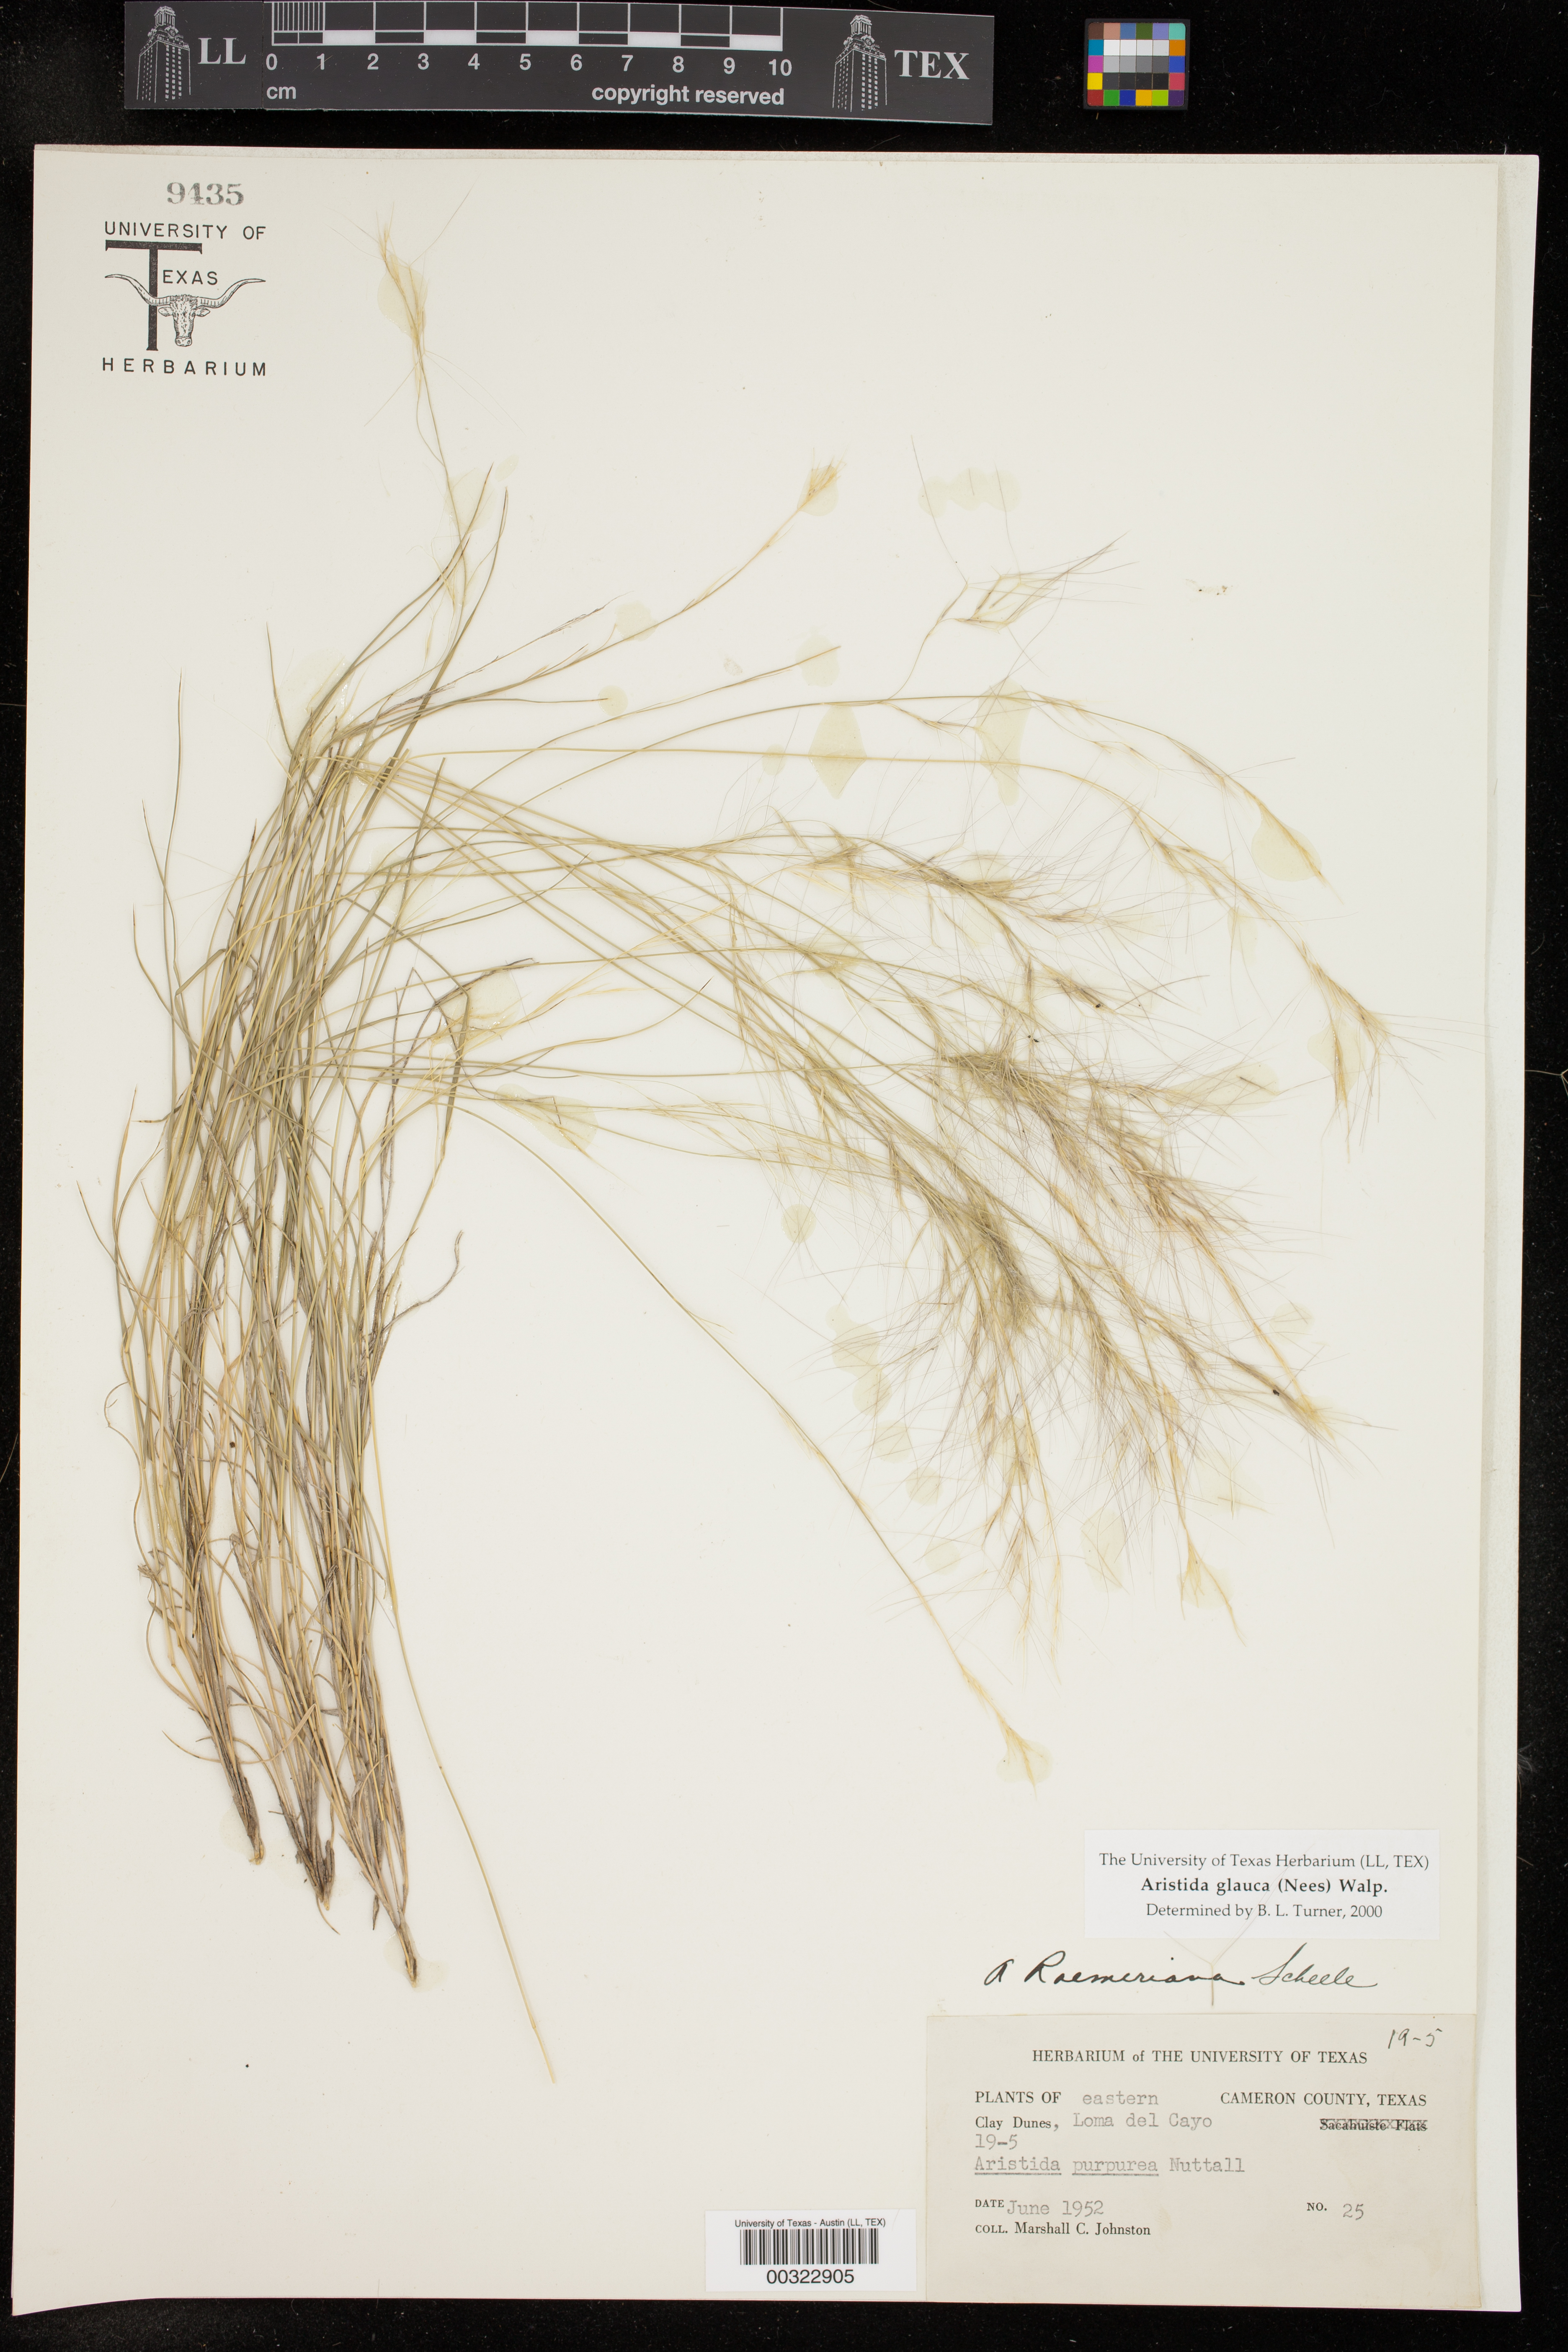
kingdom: Plantae
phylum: Tracheophyta
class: Liliopsida
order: Poales
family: Poaceae
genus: Aristida
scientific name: Aristida glauca
